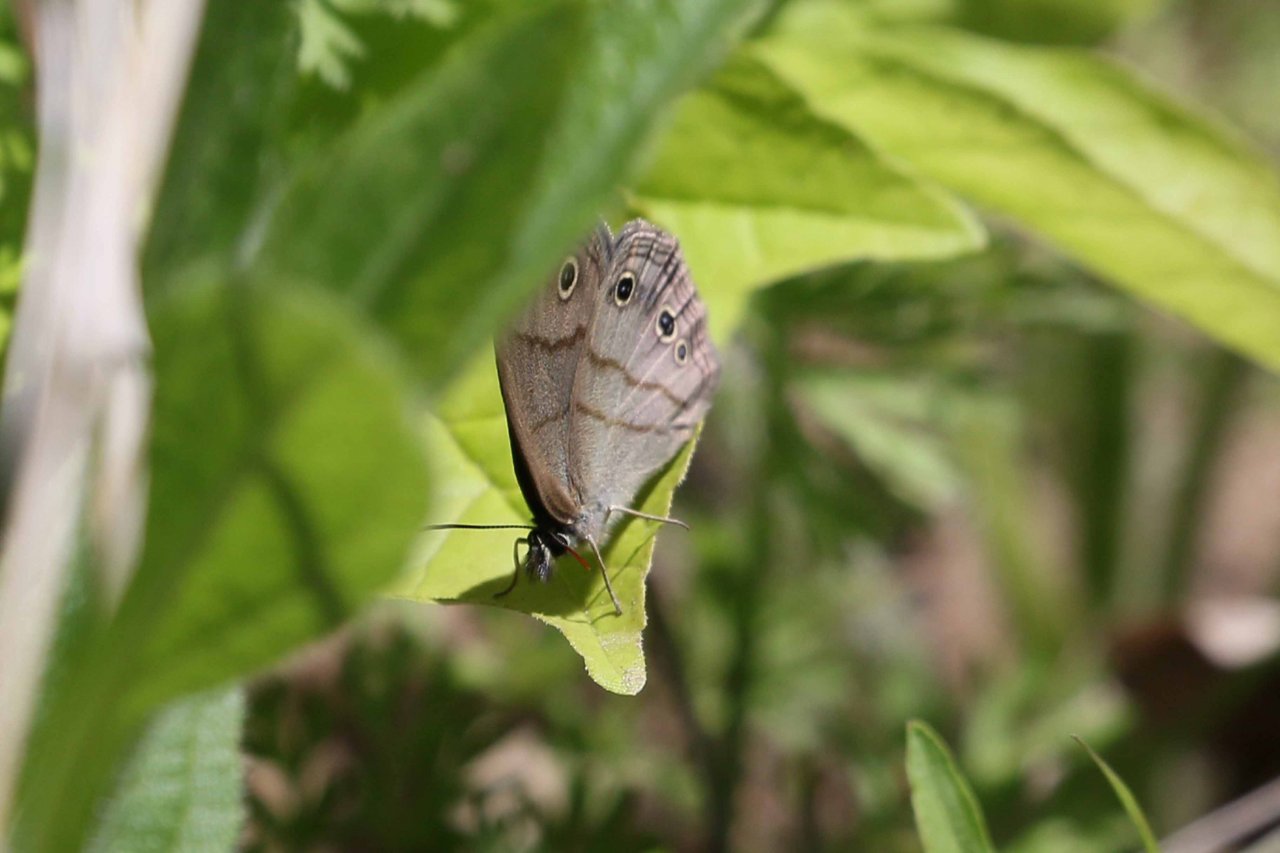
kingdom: Animalia
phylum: Arthropoda
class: Insecta
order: Lepidoptera
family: Nymphalidae
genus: Euptychia
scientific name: Euptychia cymela
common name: Little Wood Satyr
